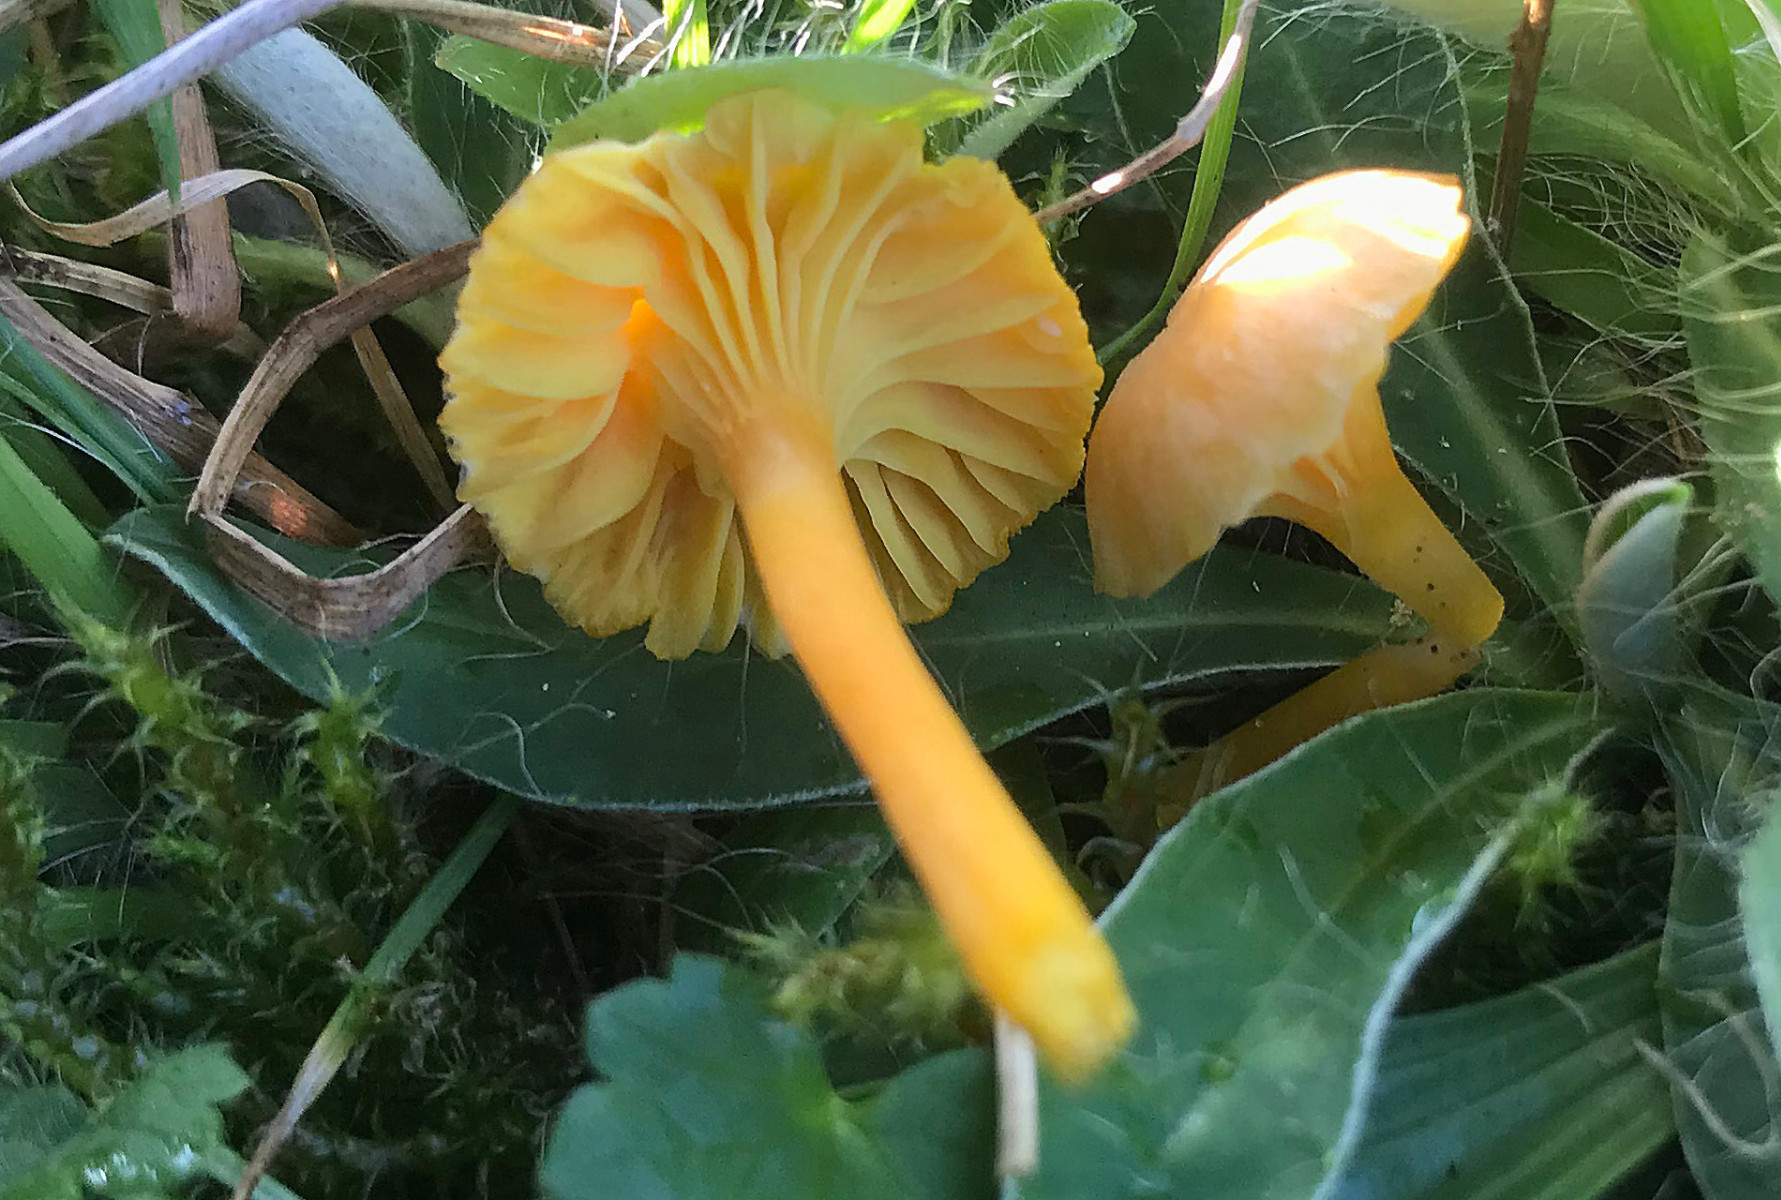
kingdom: Fungi
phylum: Basidiomycota
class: Agaricomycetes
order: Agaricales
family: Hygrophoraceae
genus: Hygrocybe
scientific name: Hygrocybe cantharellus
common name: kantarel-vokshat
